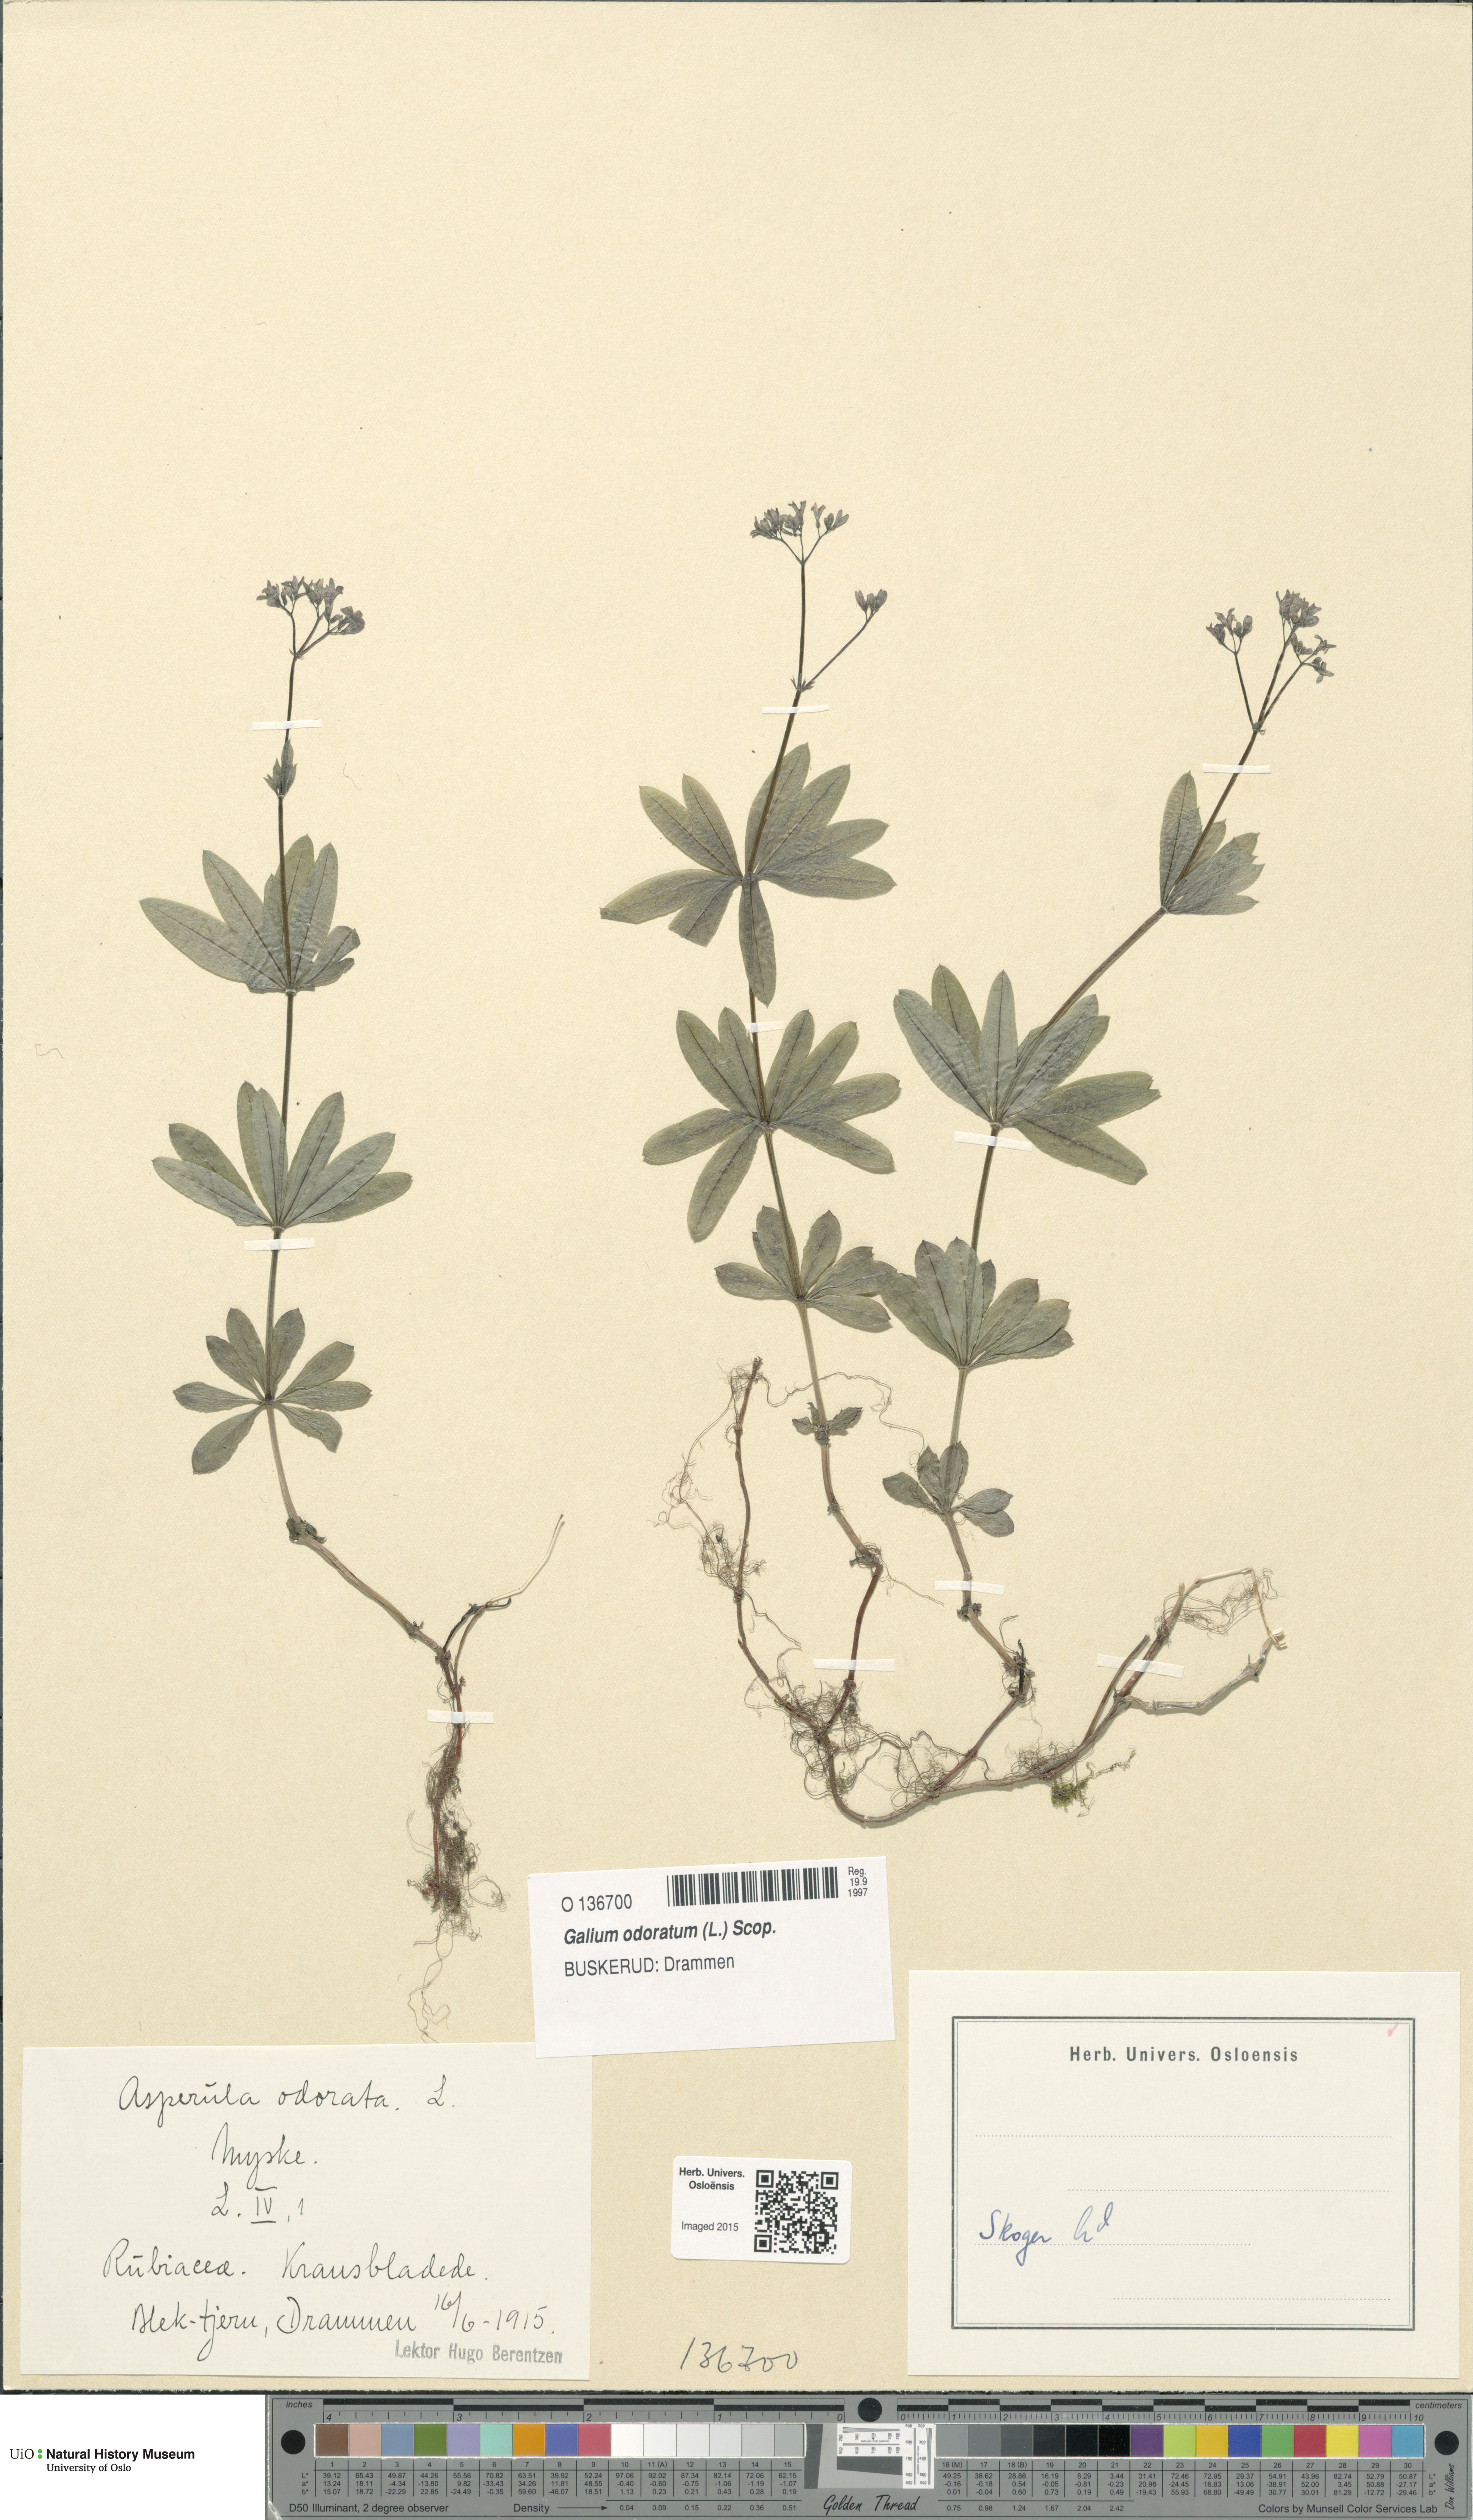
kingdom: Plantae
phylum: Tracheophyta
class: Magnoliopsida
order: Gentianales
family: Rubiaceae
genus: Galium
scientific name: Galium odoratum
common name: Sweet woodruff
